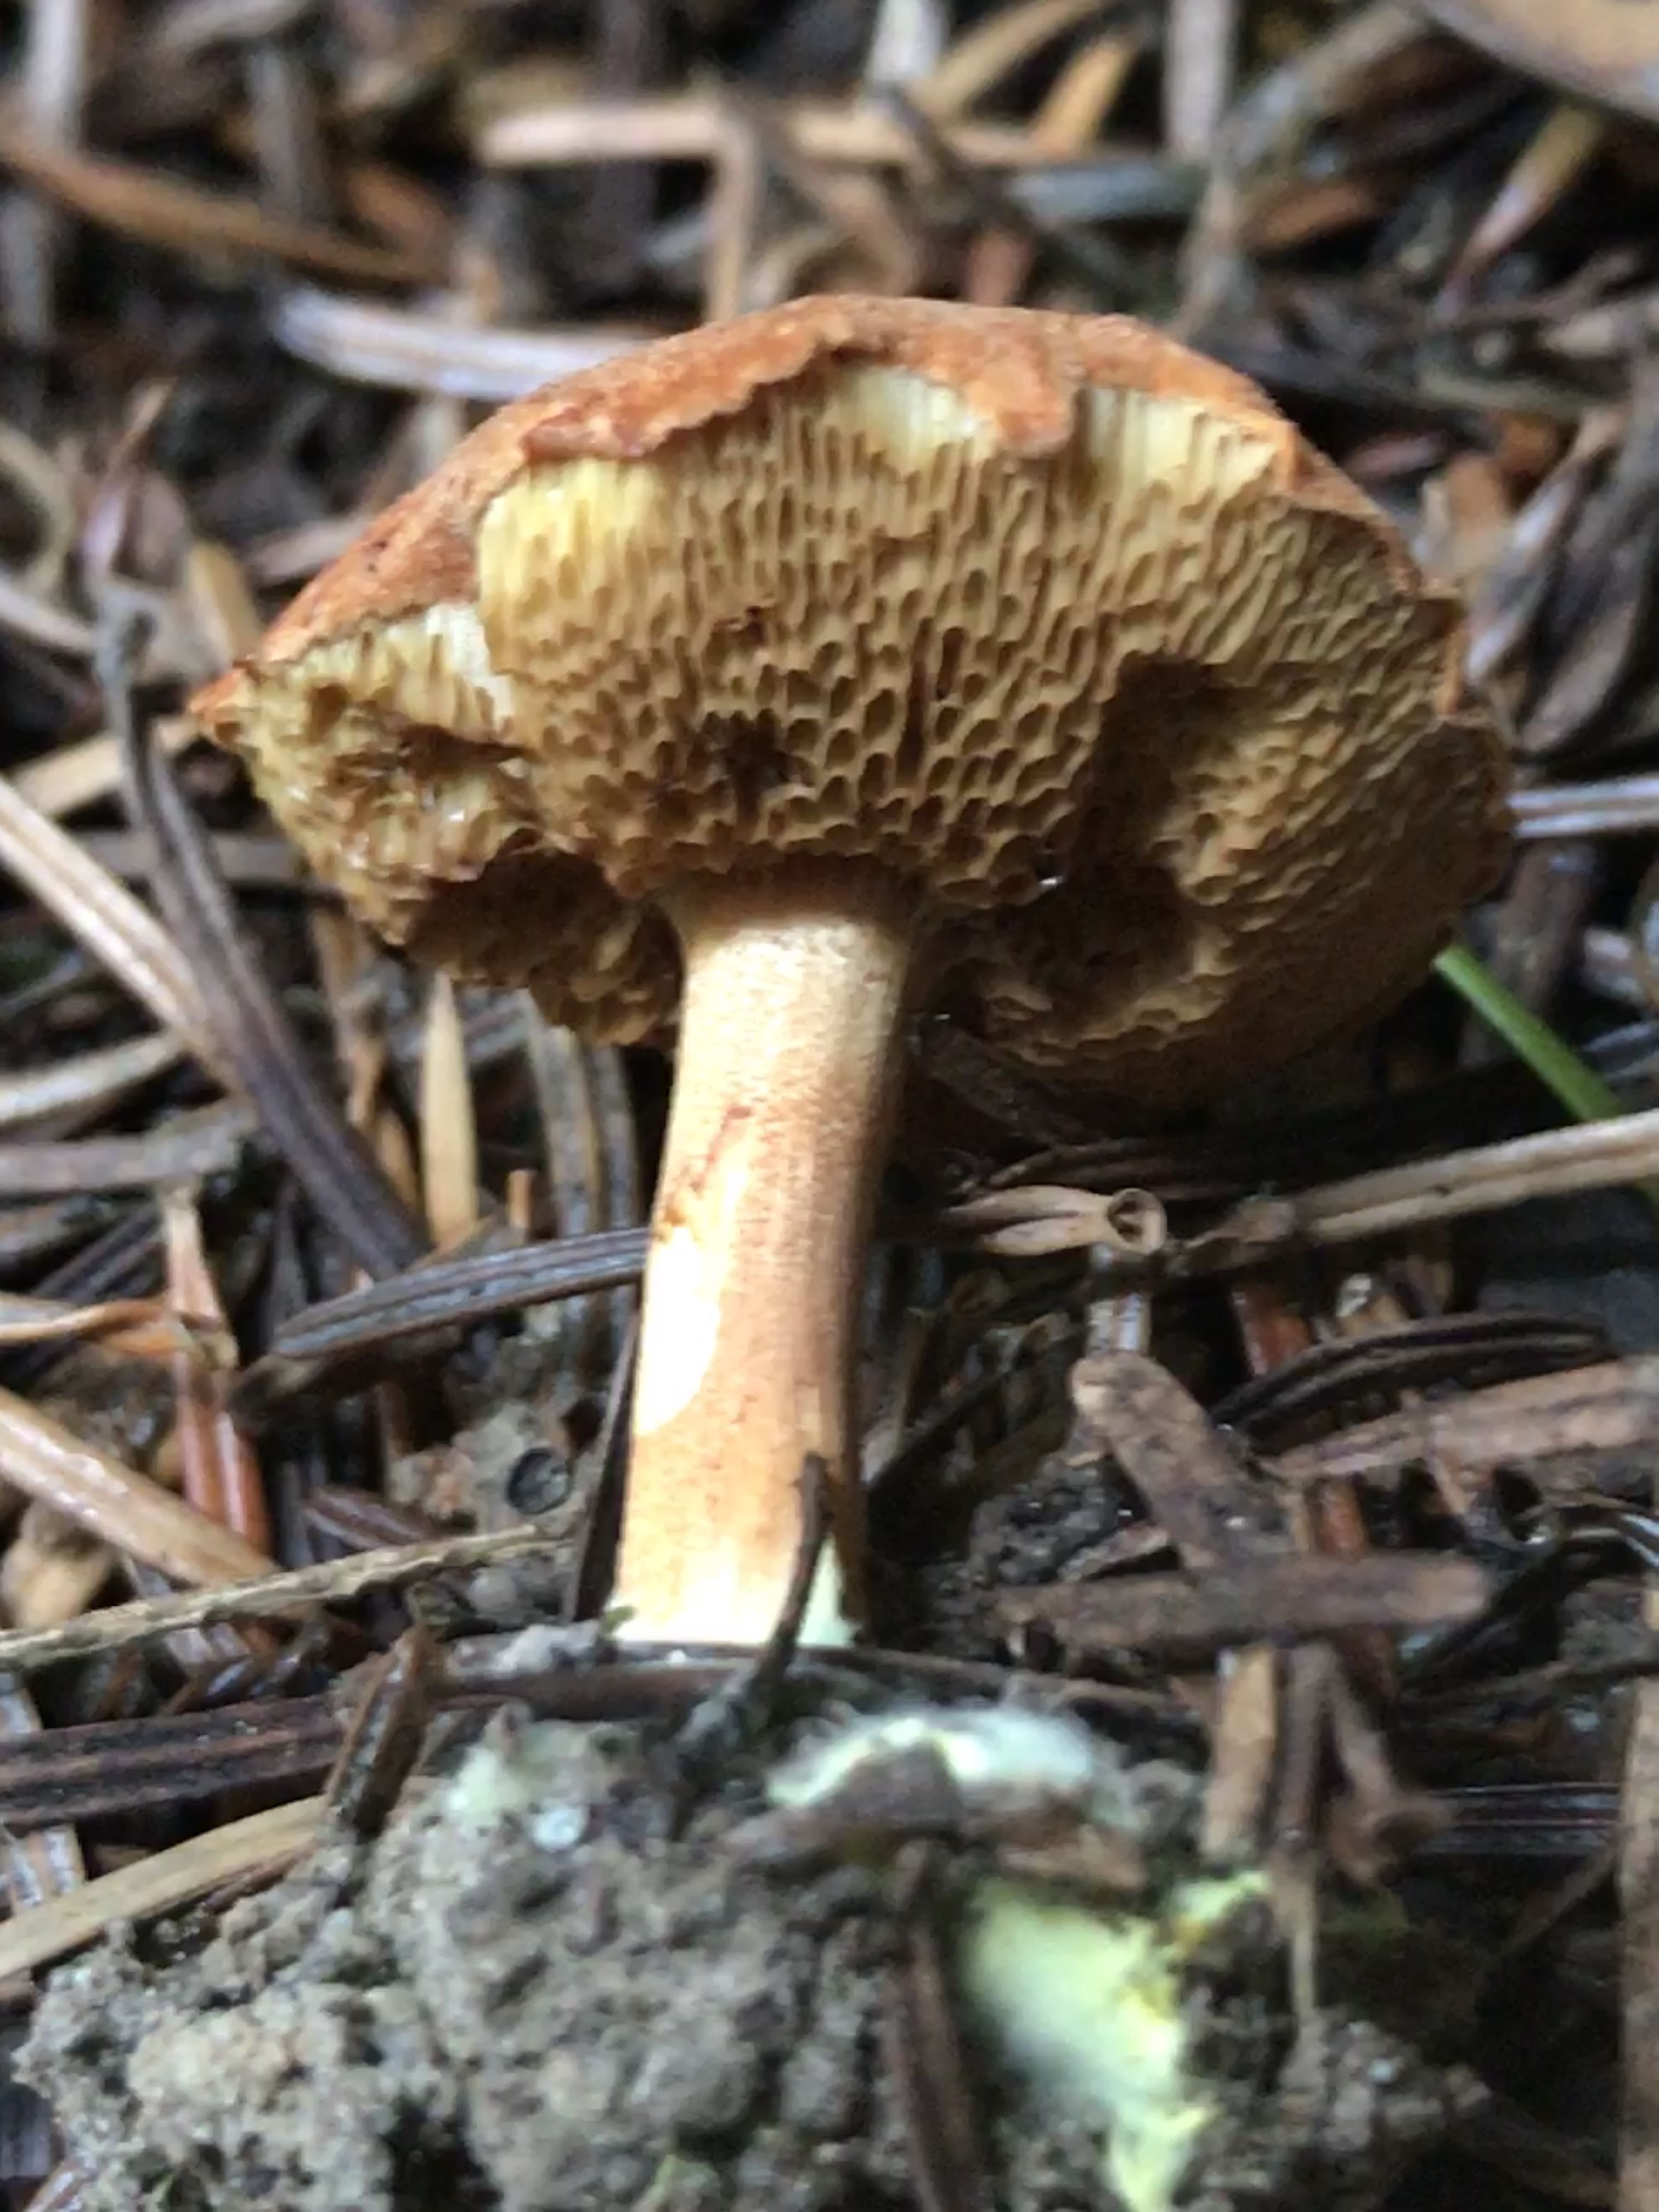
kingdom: Fungi
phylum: Basidiomycota
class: Agaricomycetes
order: Boletales
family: Boletaceae
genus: Chalciporus
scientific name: Chalciporus piperatus
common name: peberrørhat
